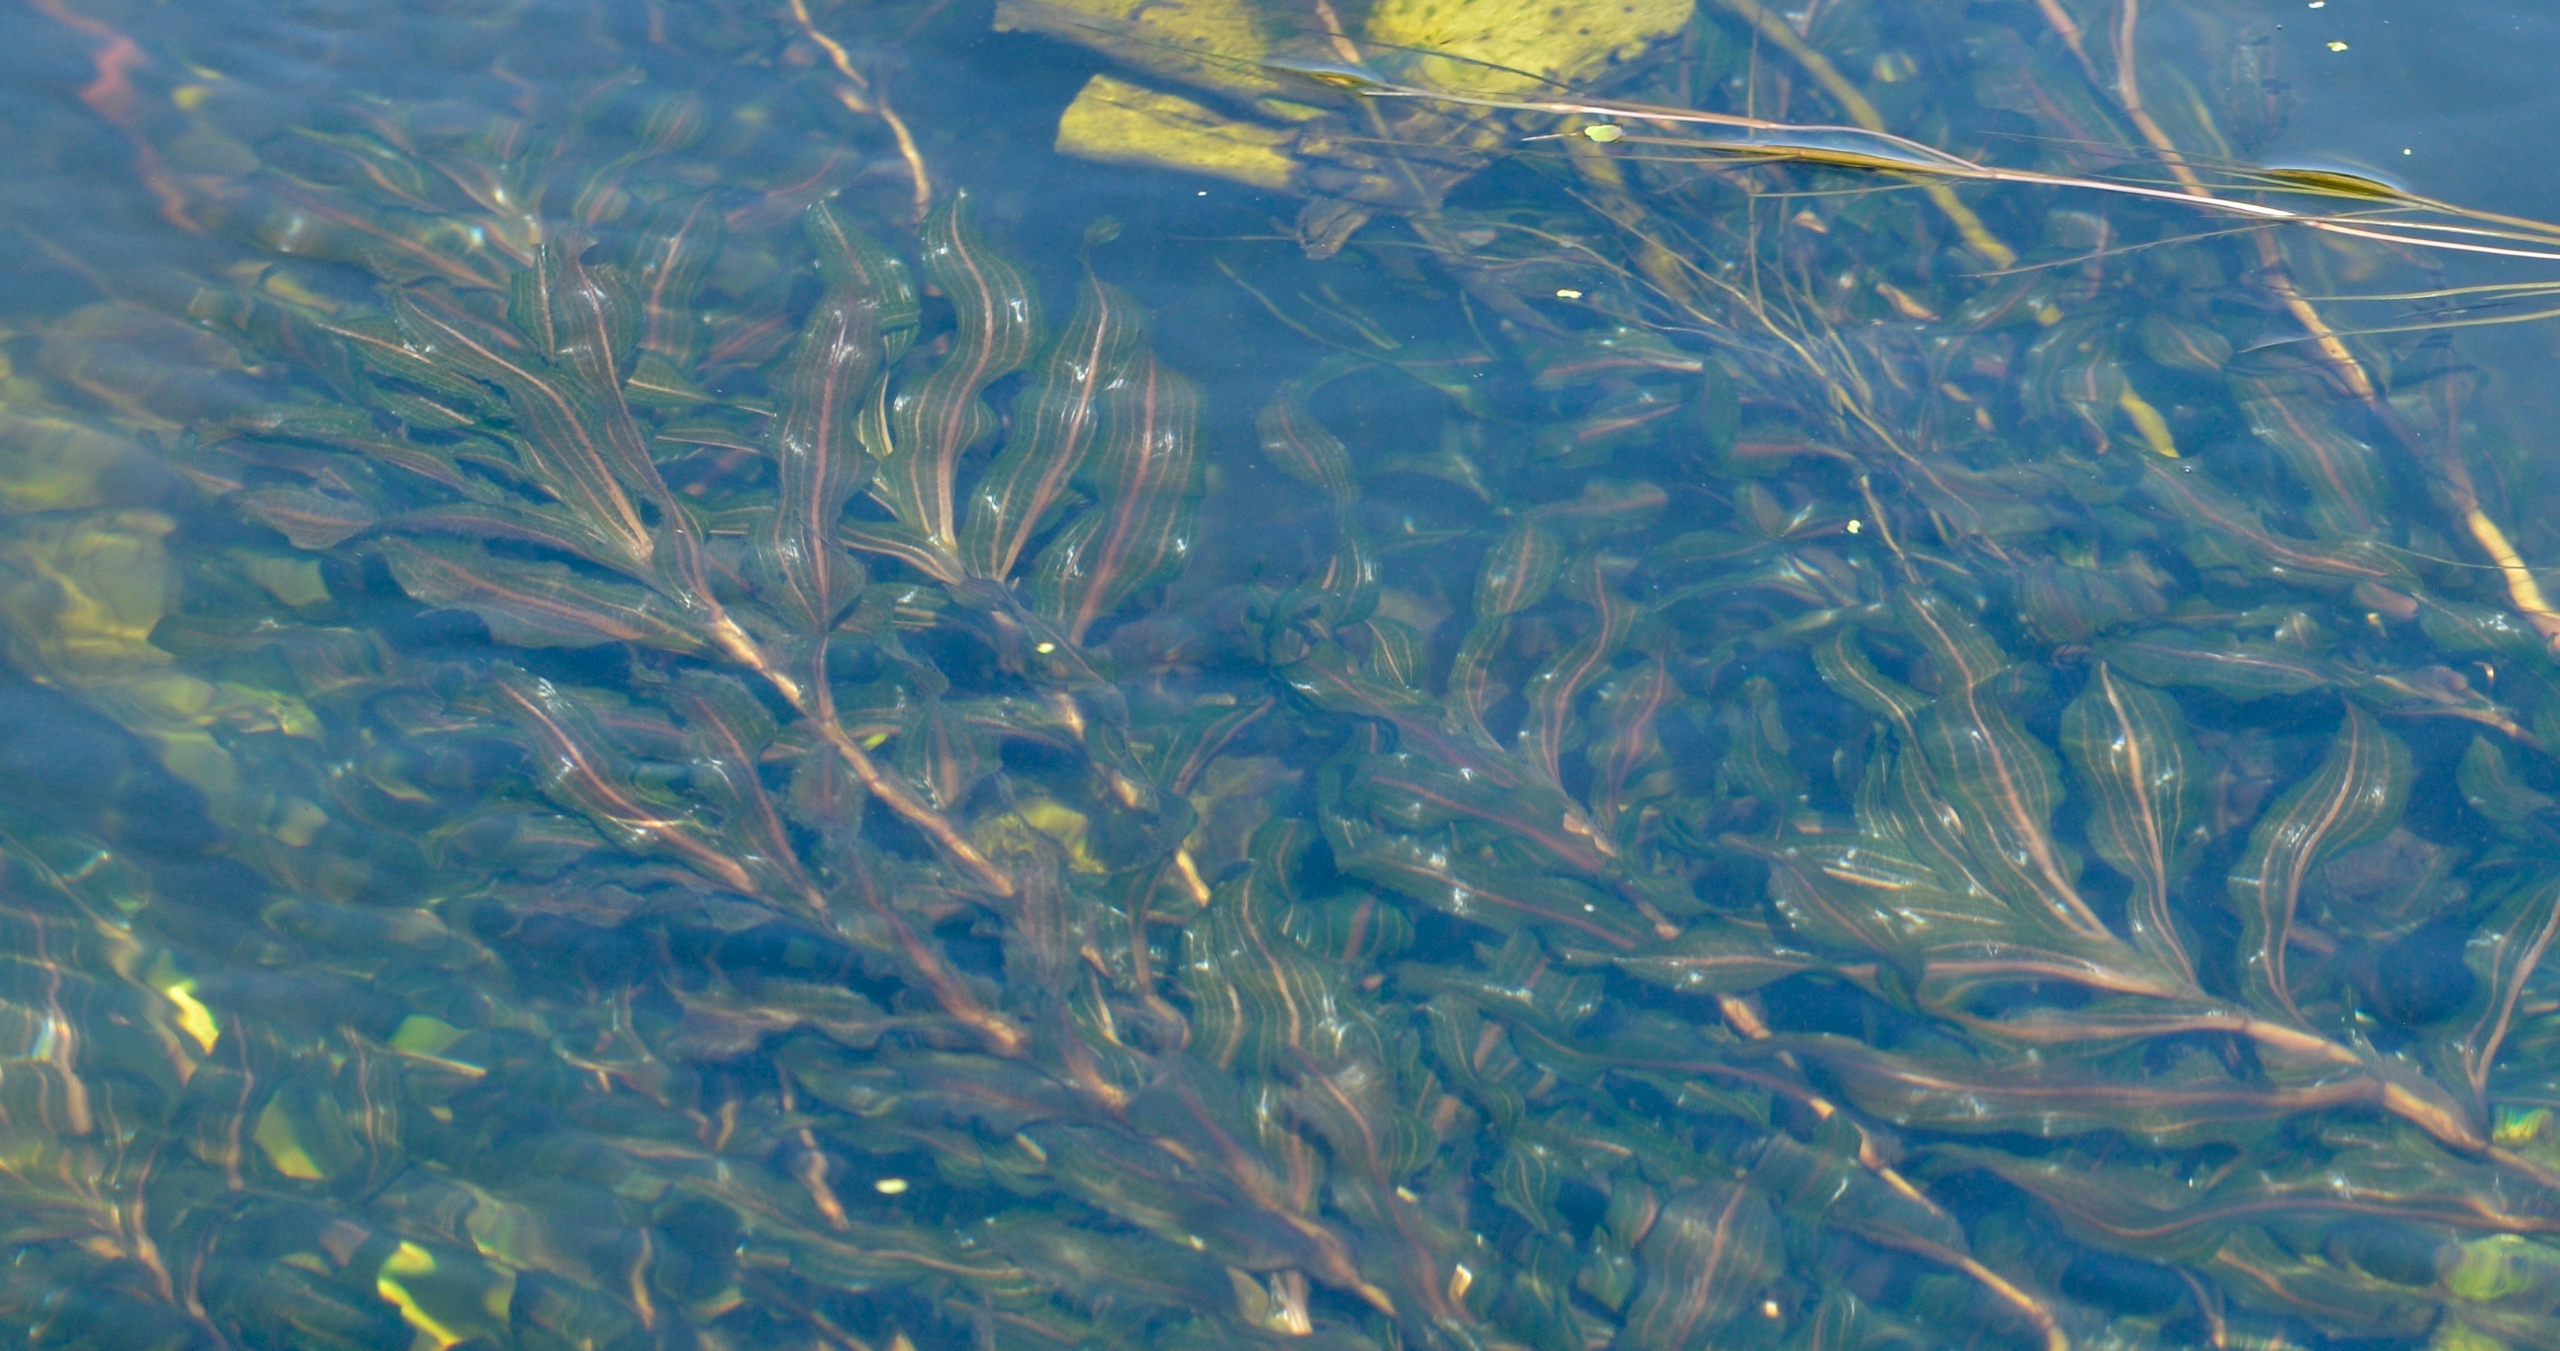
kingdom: Plantae
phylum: Tracheophyta
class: Liliopsida
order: Alismatales
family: Potamogetonaceae
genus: Potamogeton
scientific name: Potamogeton
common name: Kruset vandaks × langbladet vandaks
